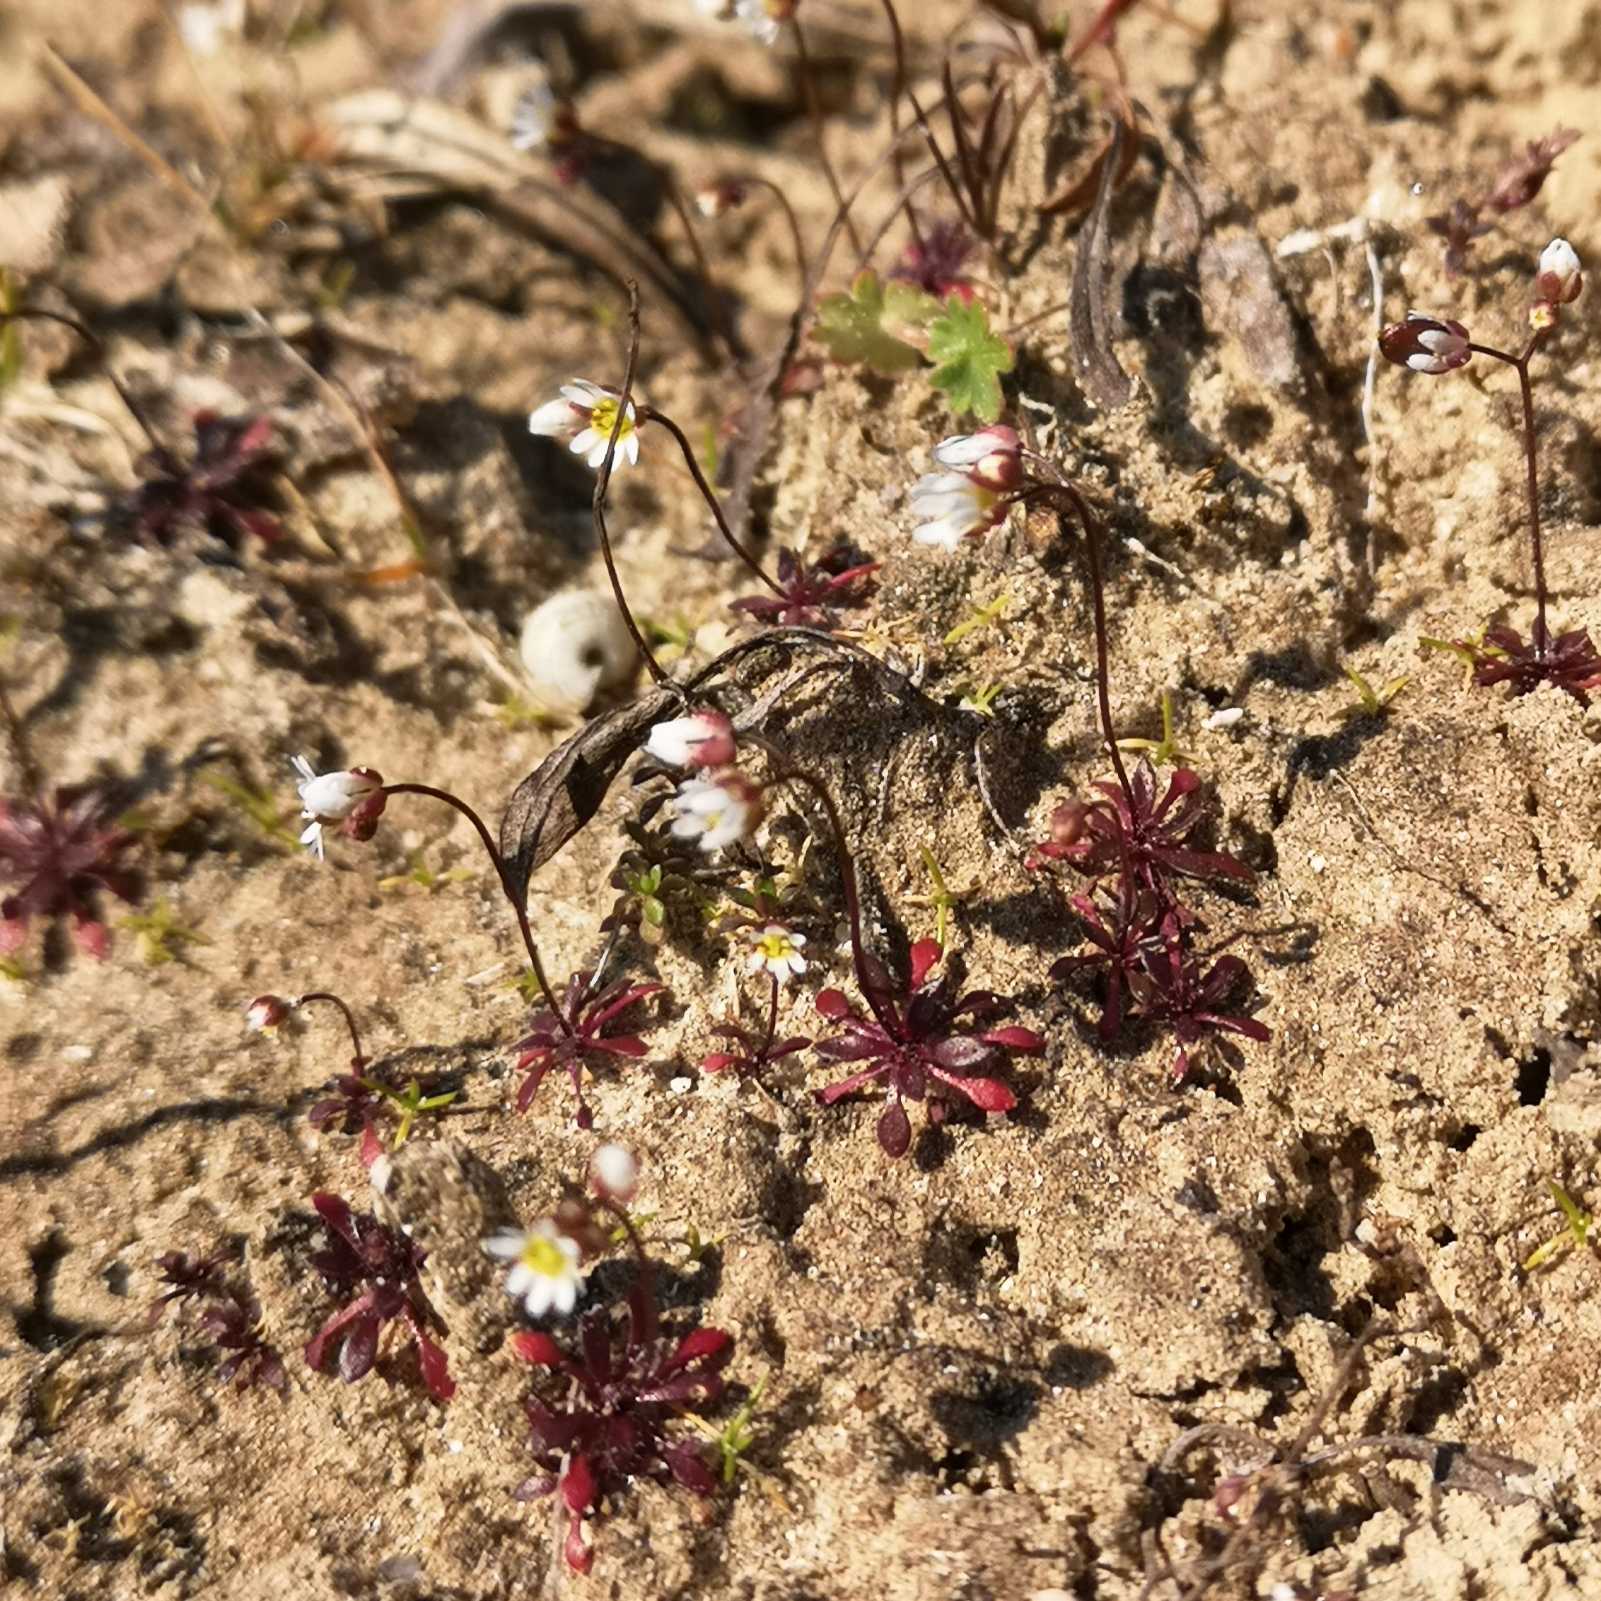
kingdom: Plantae
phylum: Tracheophyta
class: Magnoliopsida
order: Brassicales
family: Brassicaceae
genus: Draba
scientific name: Draba verna
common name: Vår-gæslingeblomst
